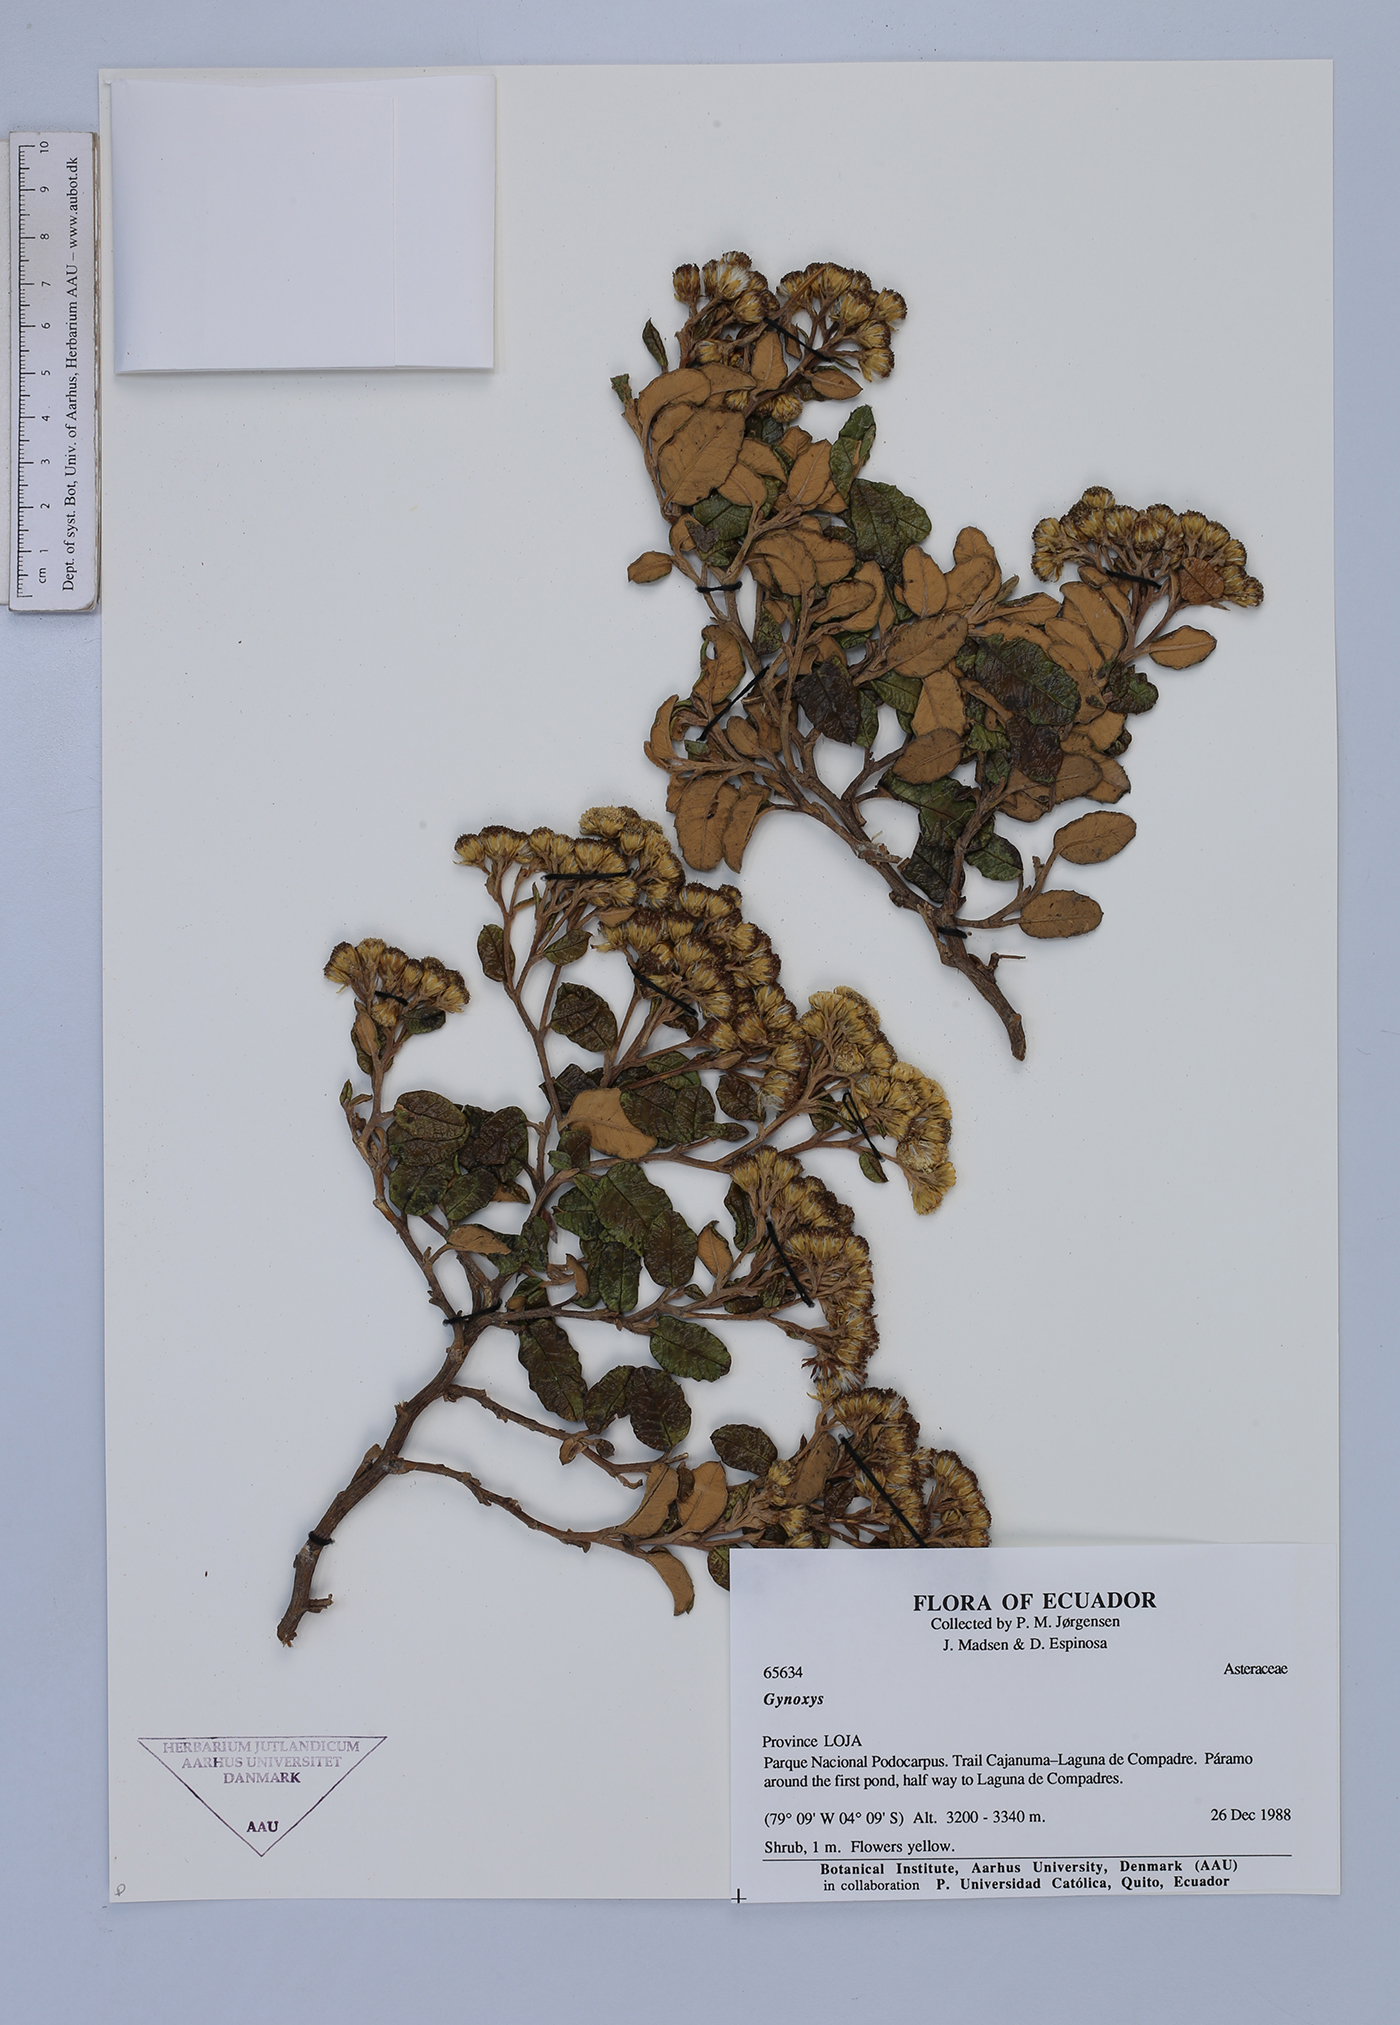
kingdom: Plantae
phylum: Tracheophyta
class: Magnoliopsida
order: Asterales
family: Asteraceae
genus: Gynoxys
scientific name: Gynoxys jaramilloi
